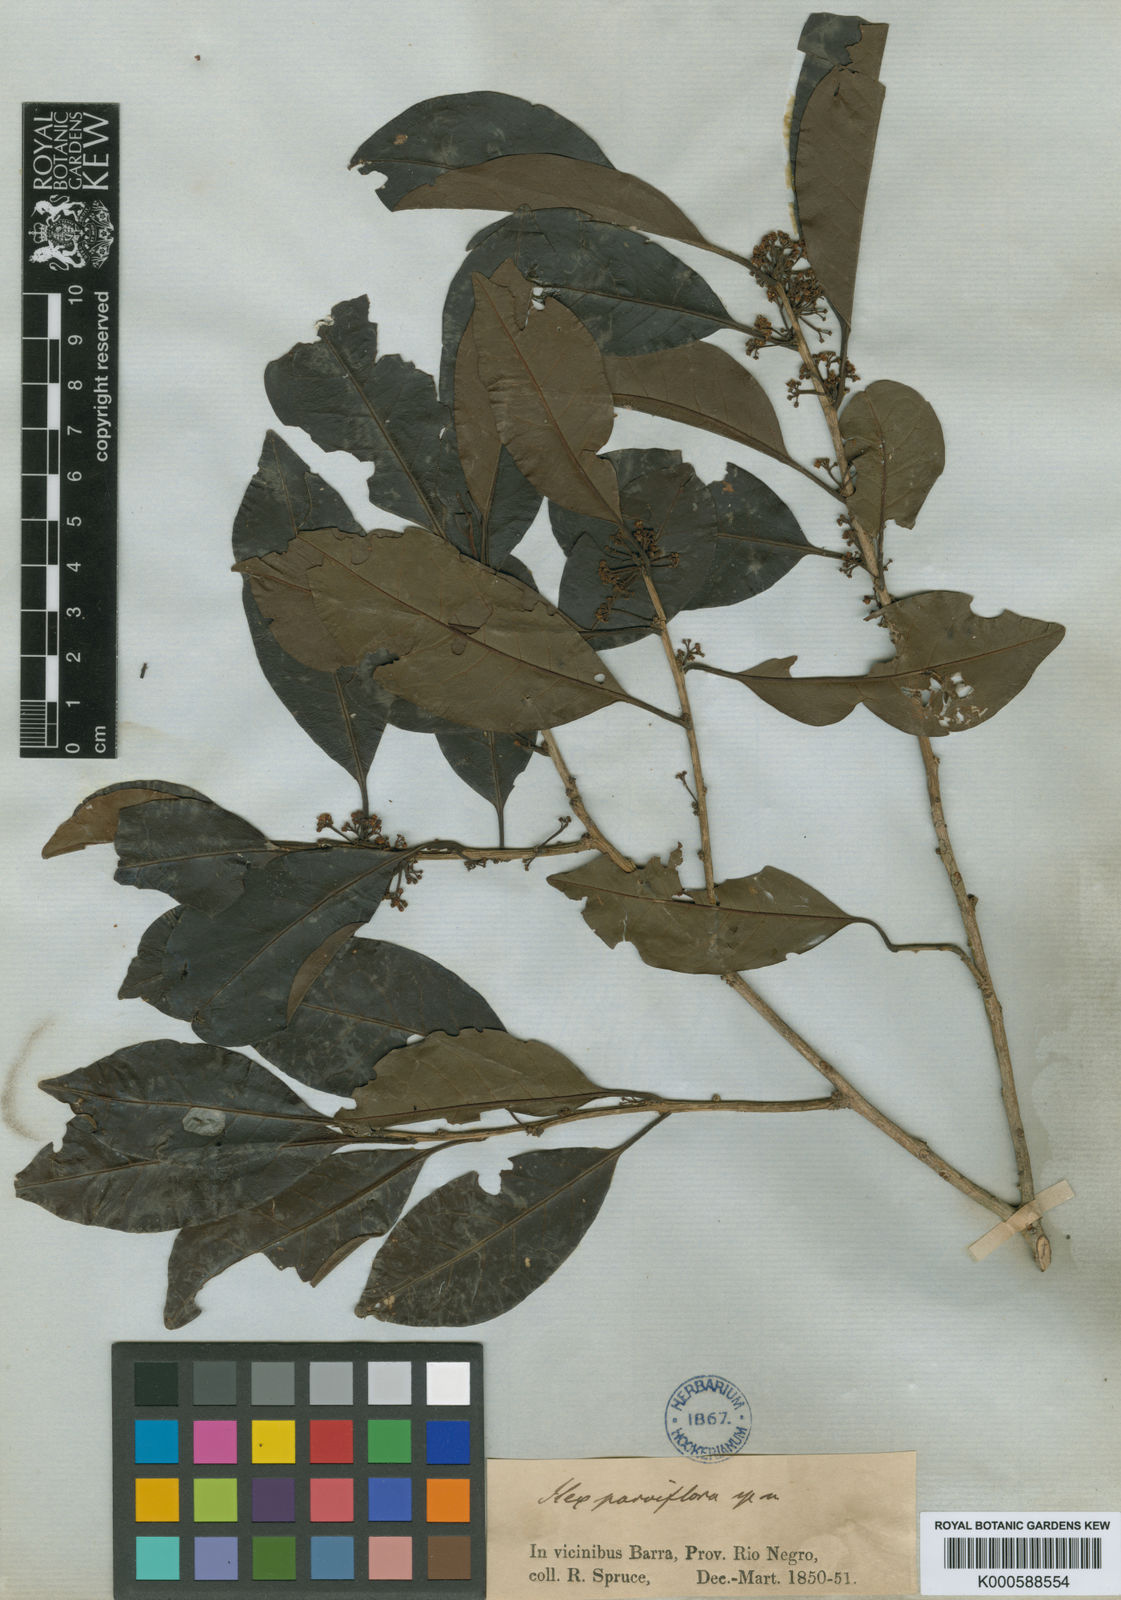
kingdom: Plantae
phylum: Tracheophyta
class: Magnoliopsida
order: Aquifoliales
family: Aquifoliaceae
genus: Ilex
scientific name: Ilex petiolaris
